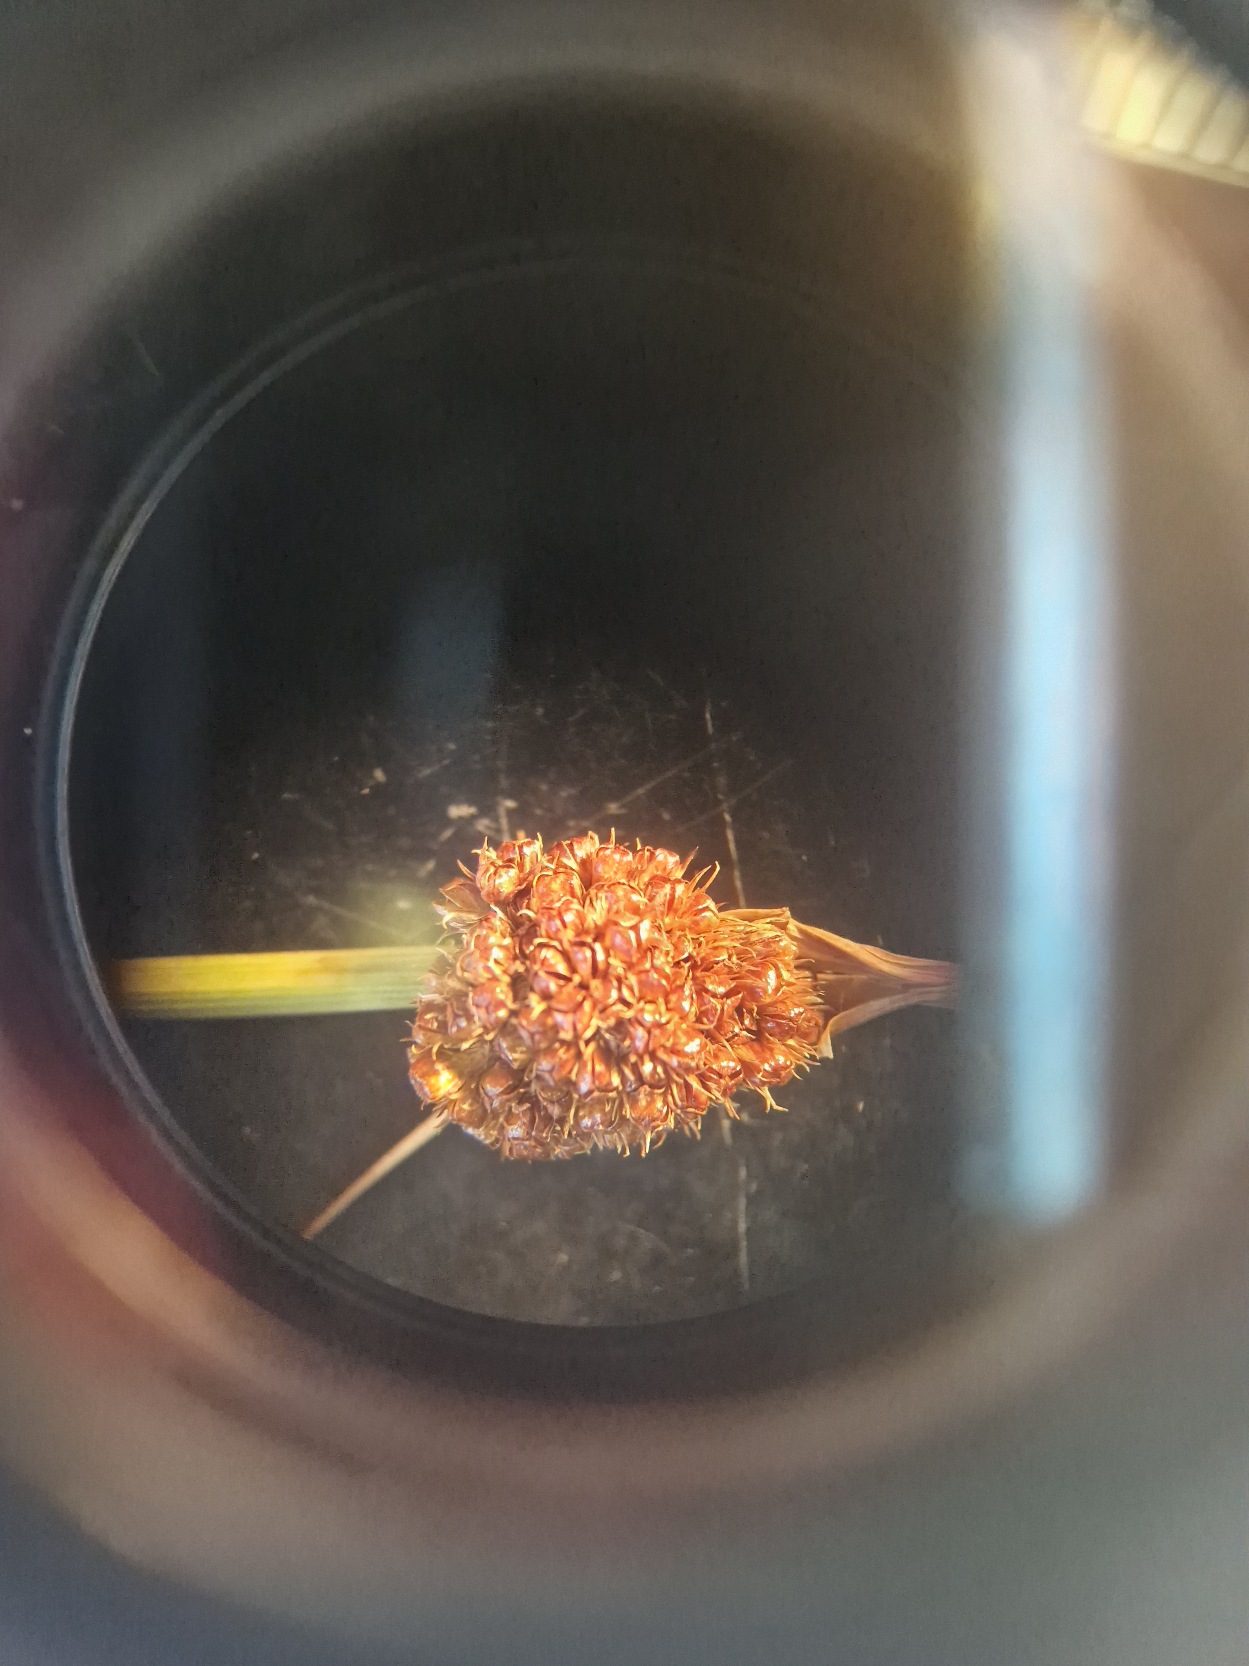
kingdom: Plantae
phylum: Tracheophyta
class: Liliopsida
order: Poales
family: Juncaceae
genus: Juncus
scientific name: Juncus conglomeratus
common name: Knop-siv
